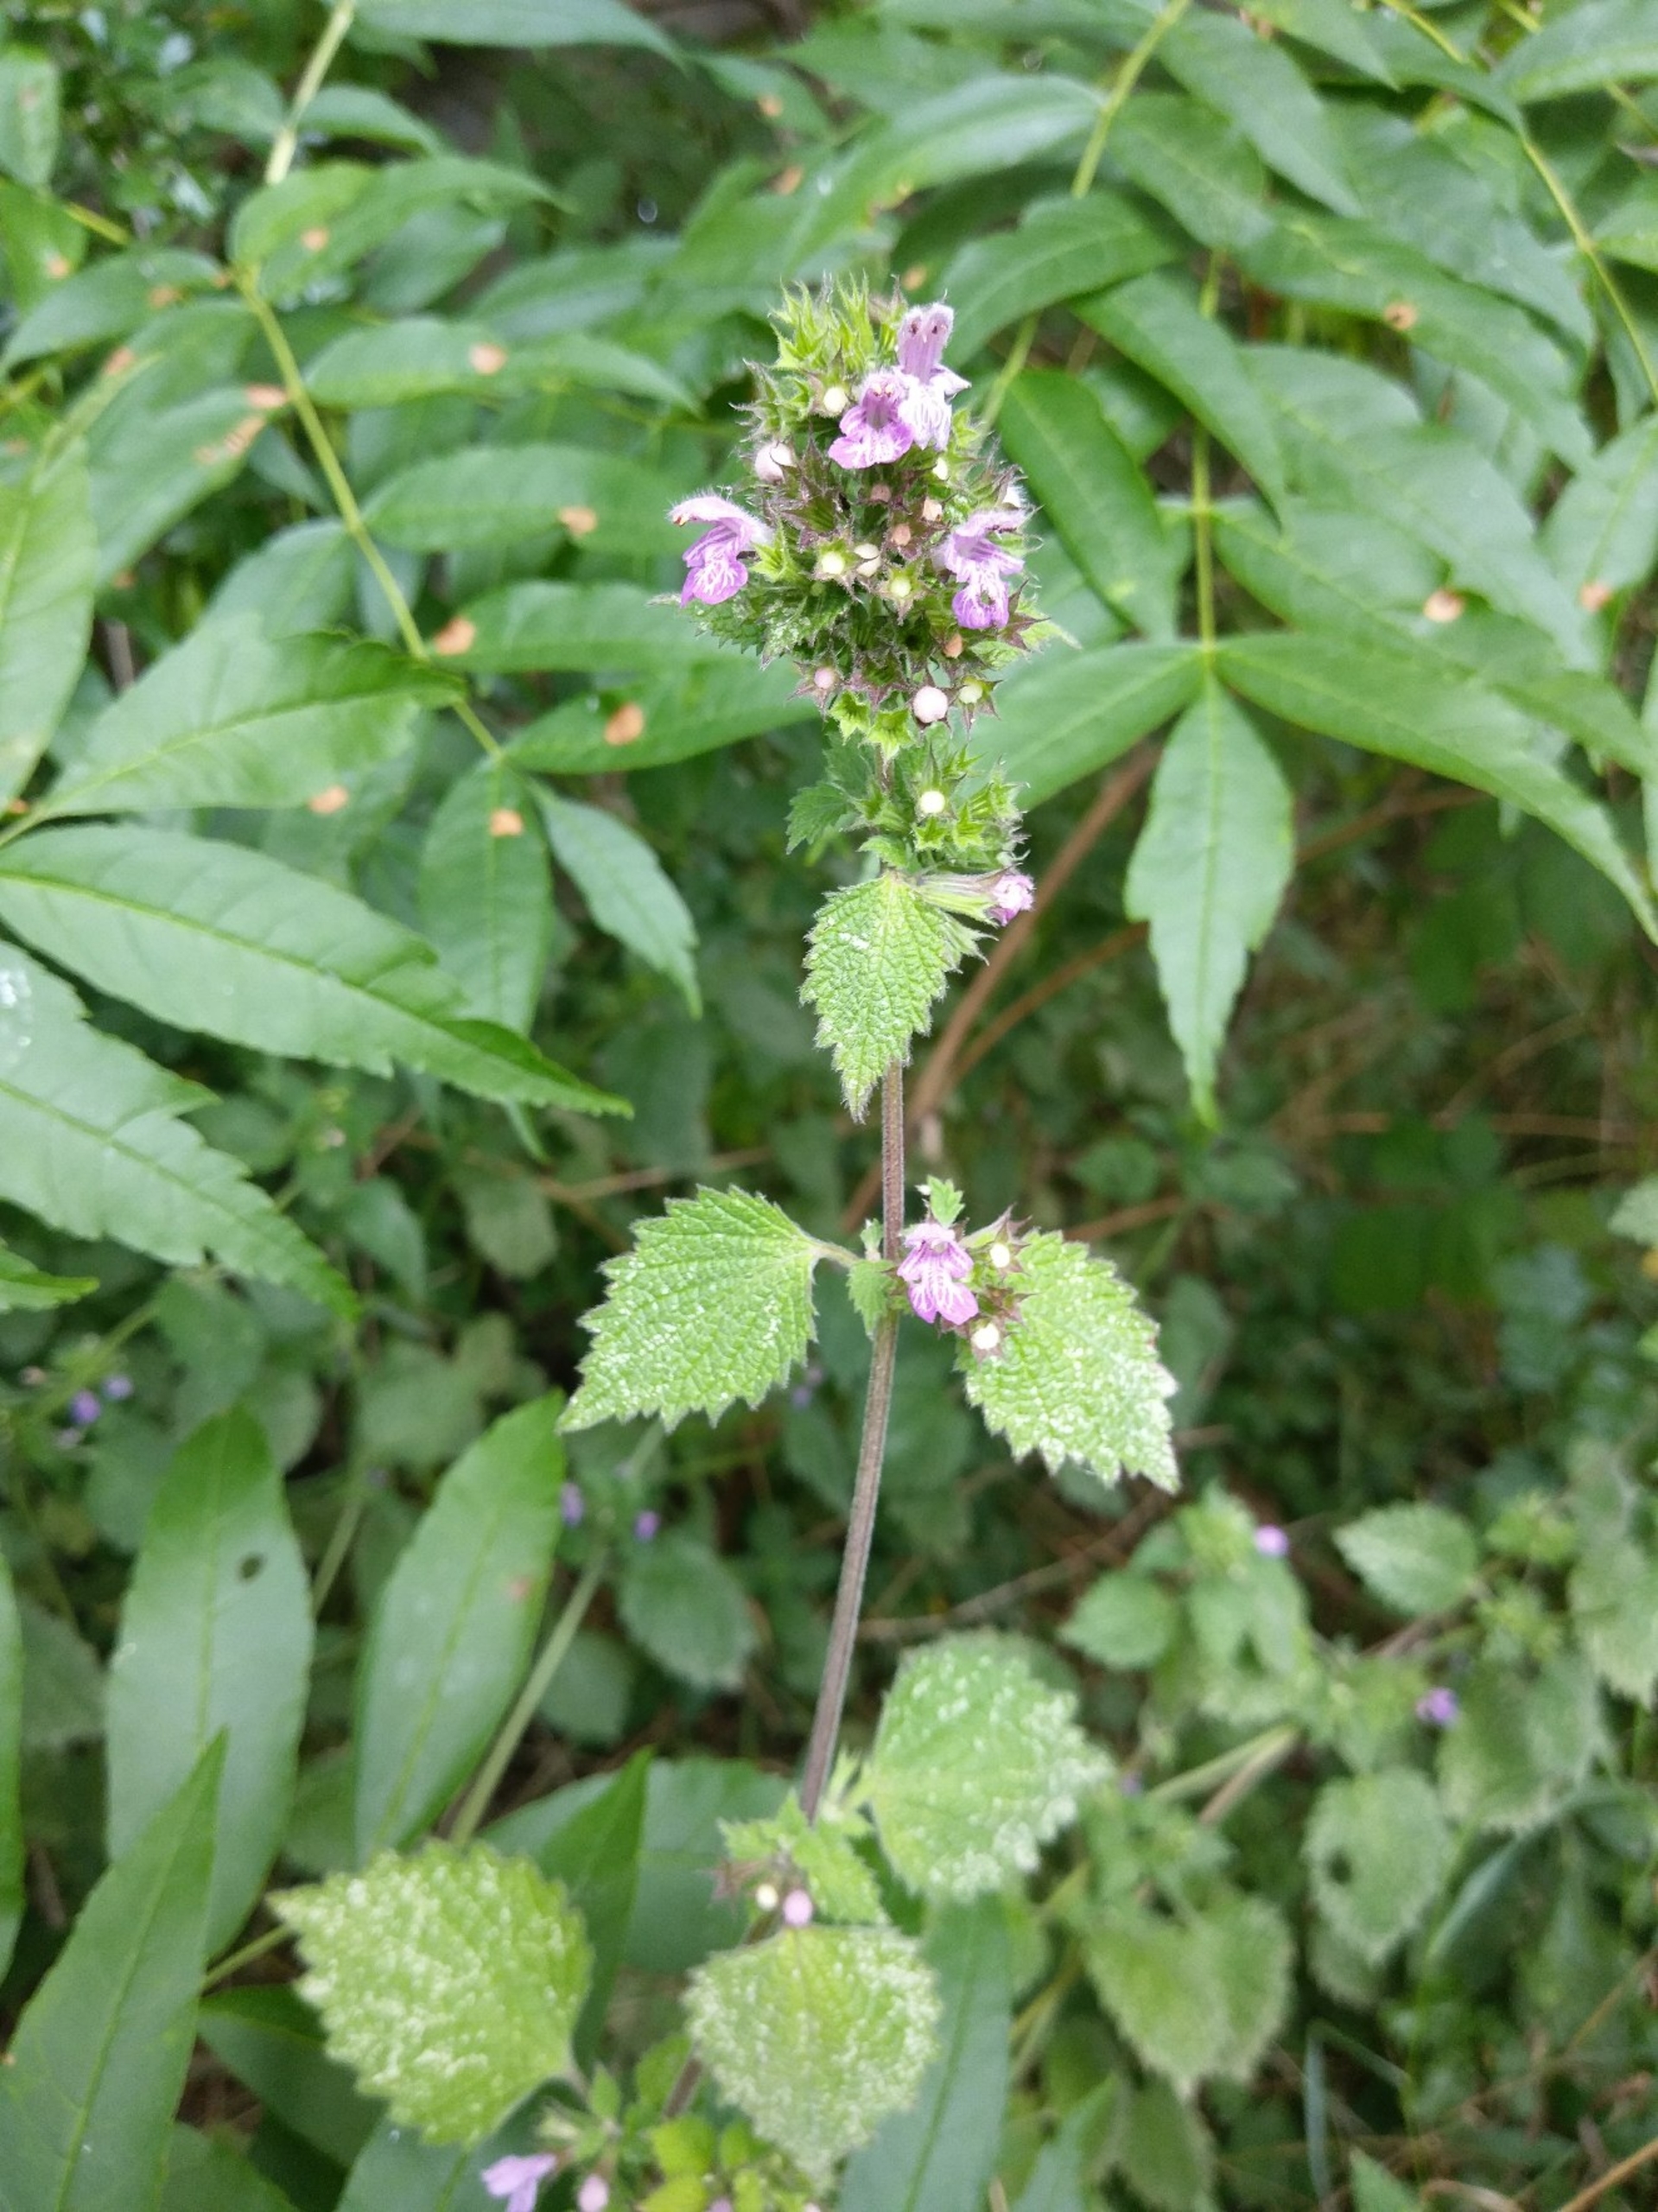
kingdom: Plantae
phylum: Tracheophyta
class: Magnoliopsida
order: Lamiales
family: Lamiaceae
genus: Ballota
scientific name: Ballota nigra
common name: Tandbæger
